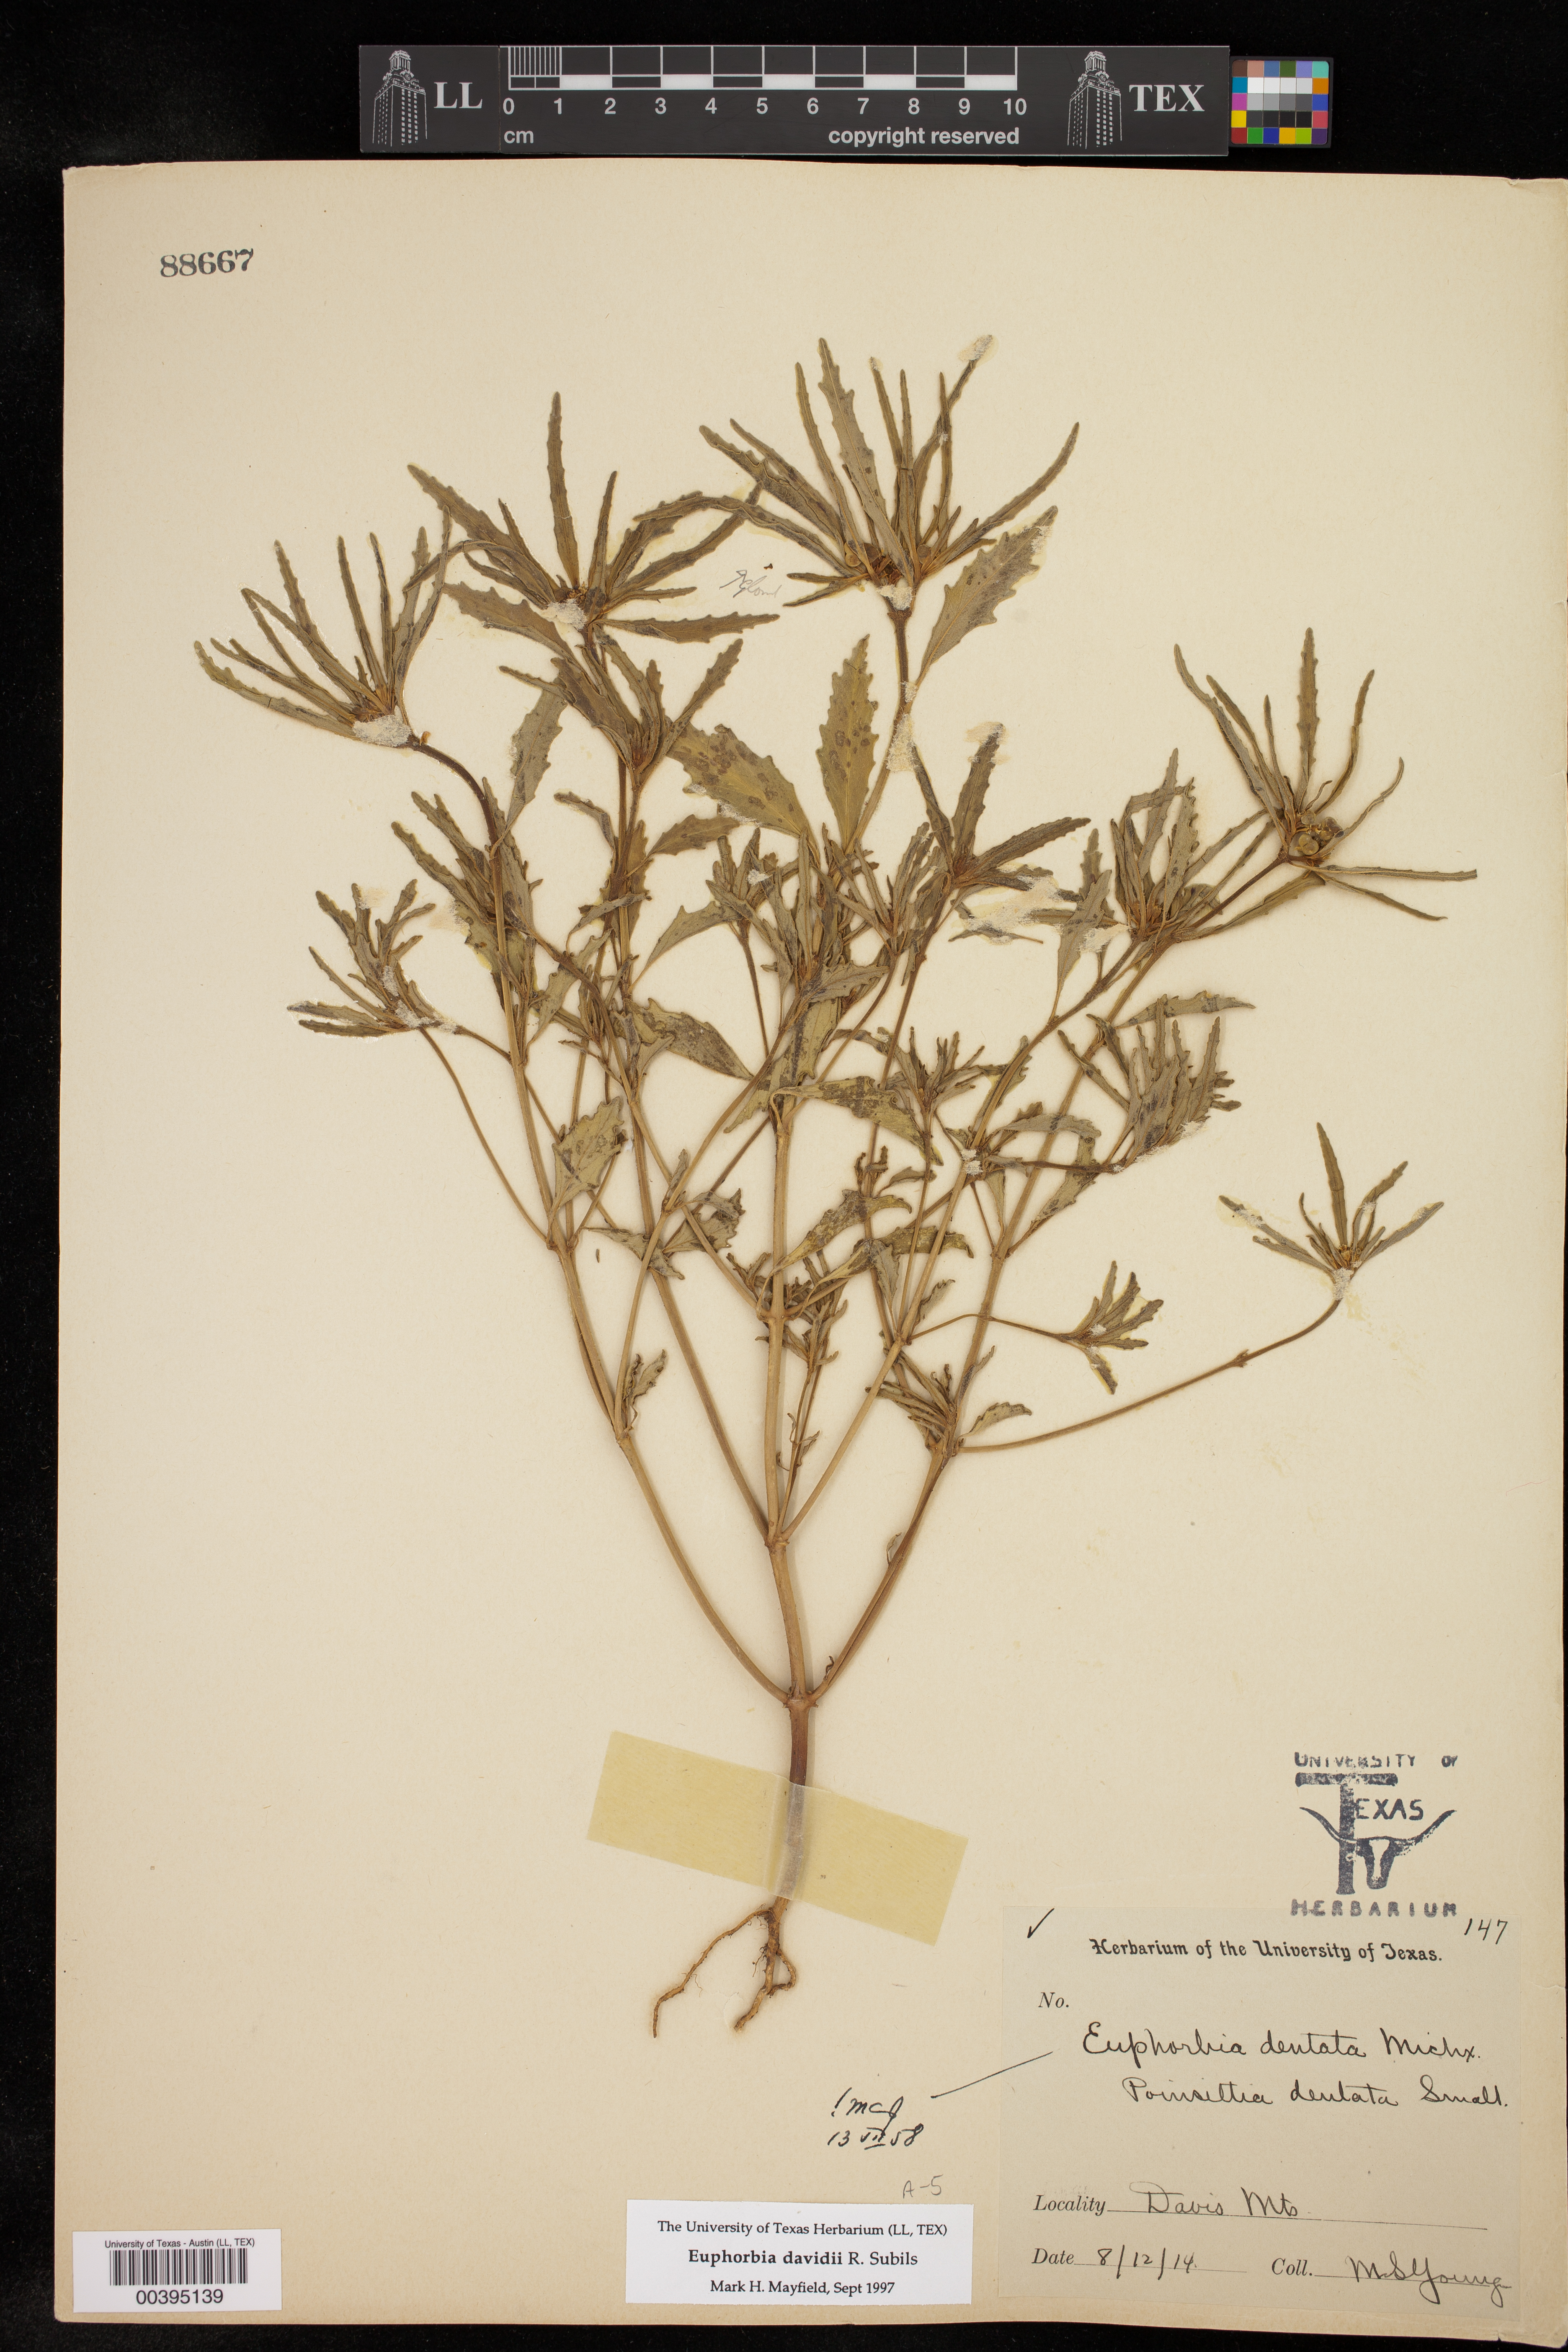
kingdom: Plantae
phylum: Tracheophyta
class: Magnoliopsida
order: Malpighiales
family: Euphorbiaceae
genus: Euphorbia
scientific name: Euphorbia davidii
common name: David's spurge
